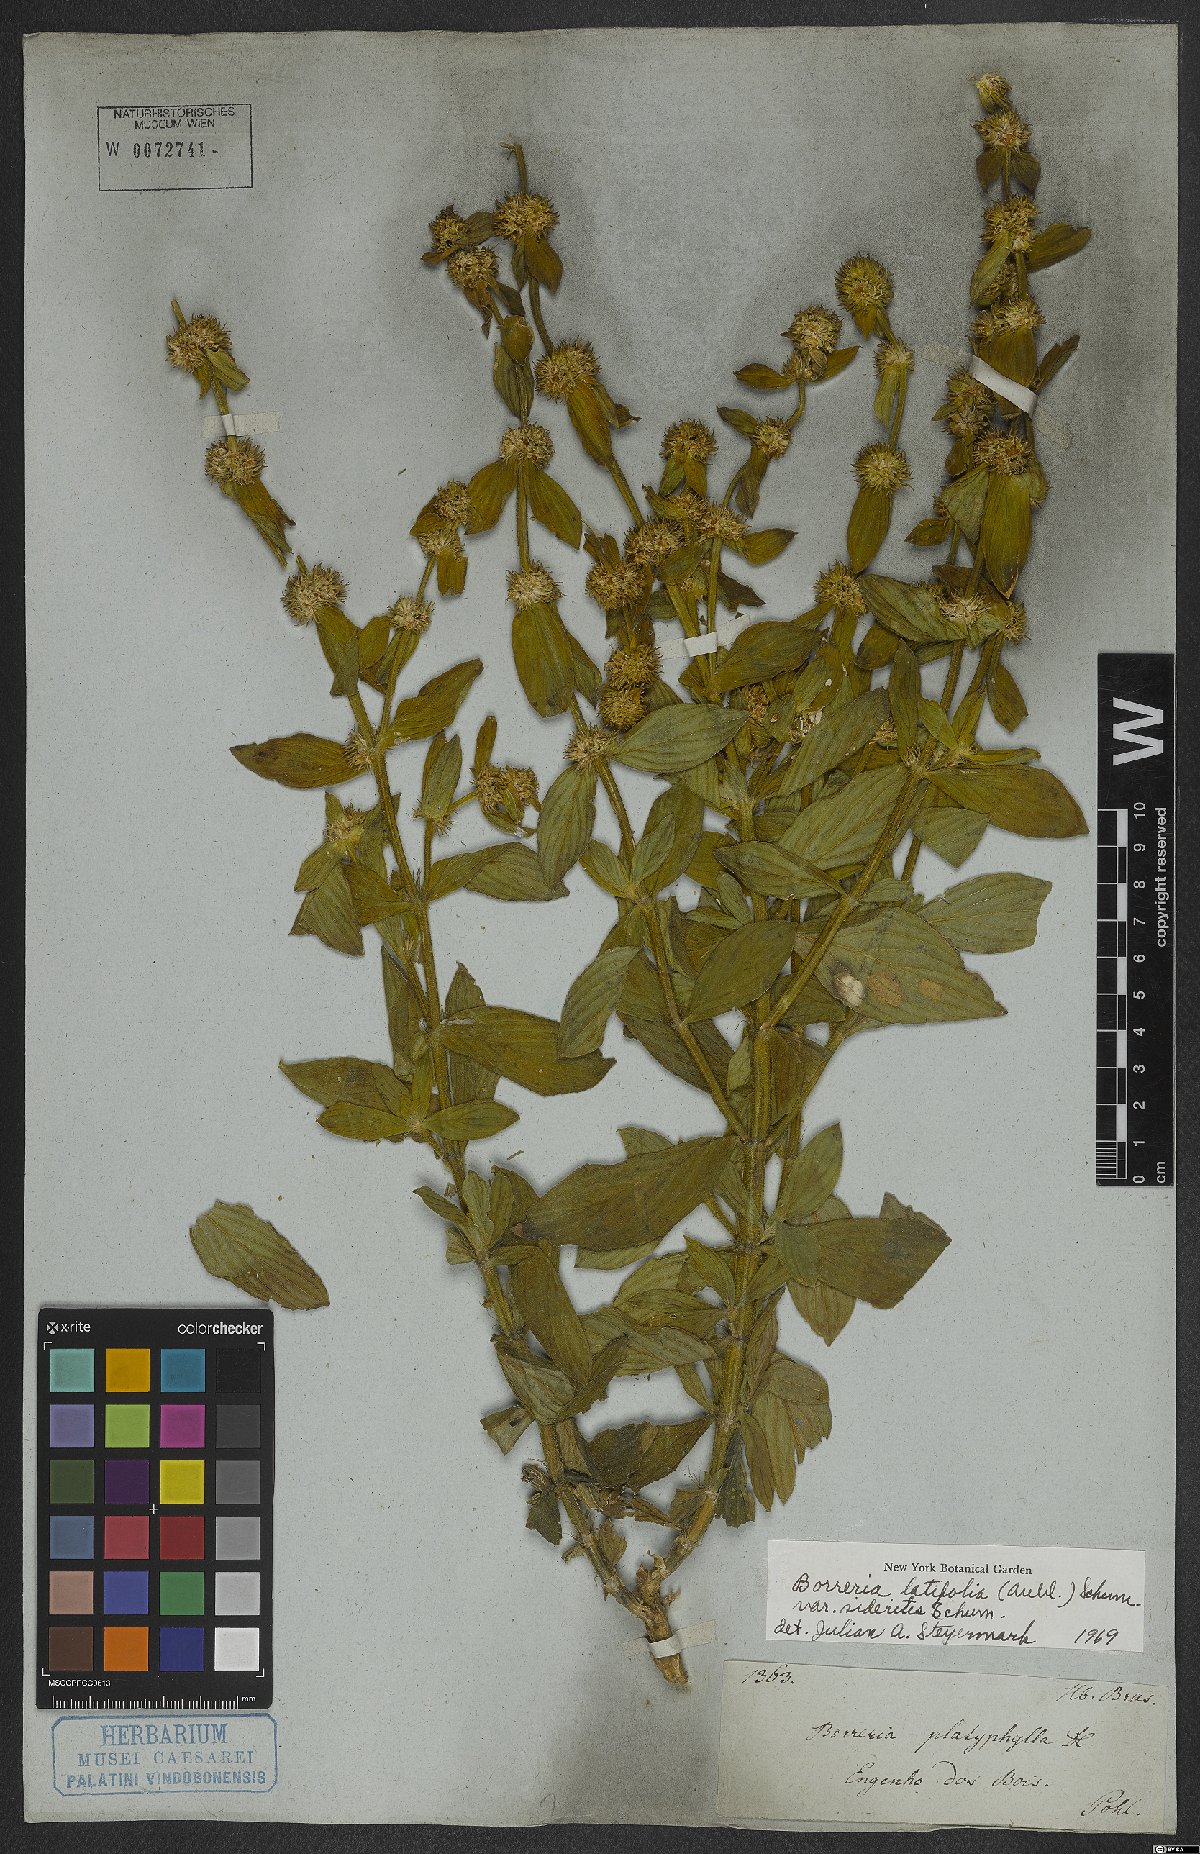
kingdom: Plantae
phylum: Tracheophyta
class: Magnoliopsida
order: Gentianales
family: Rubiaceae
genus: Spermacoce
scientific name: Spermacoce latifolia
